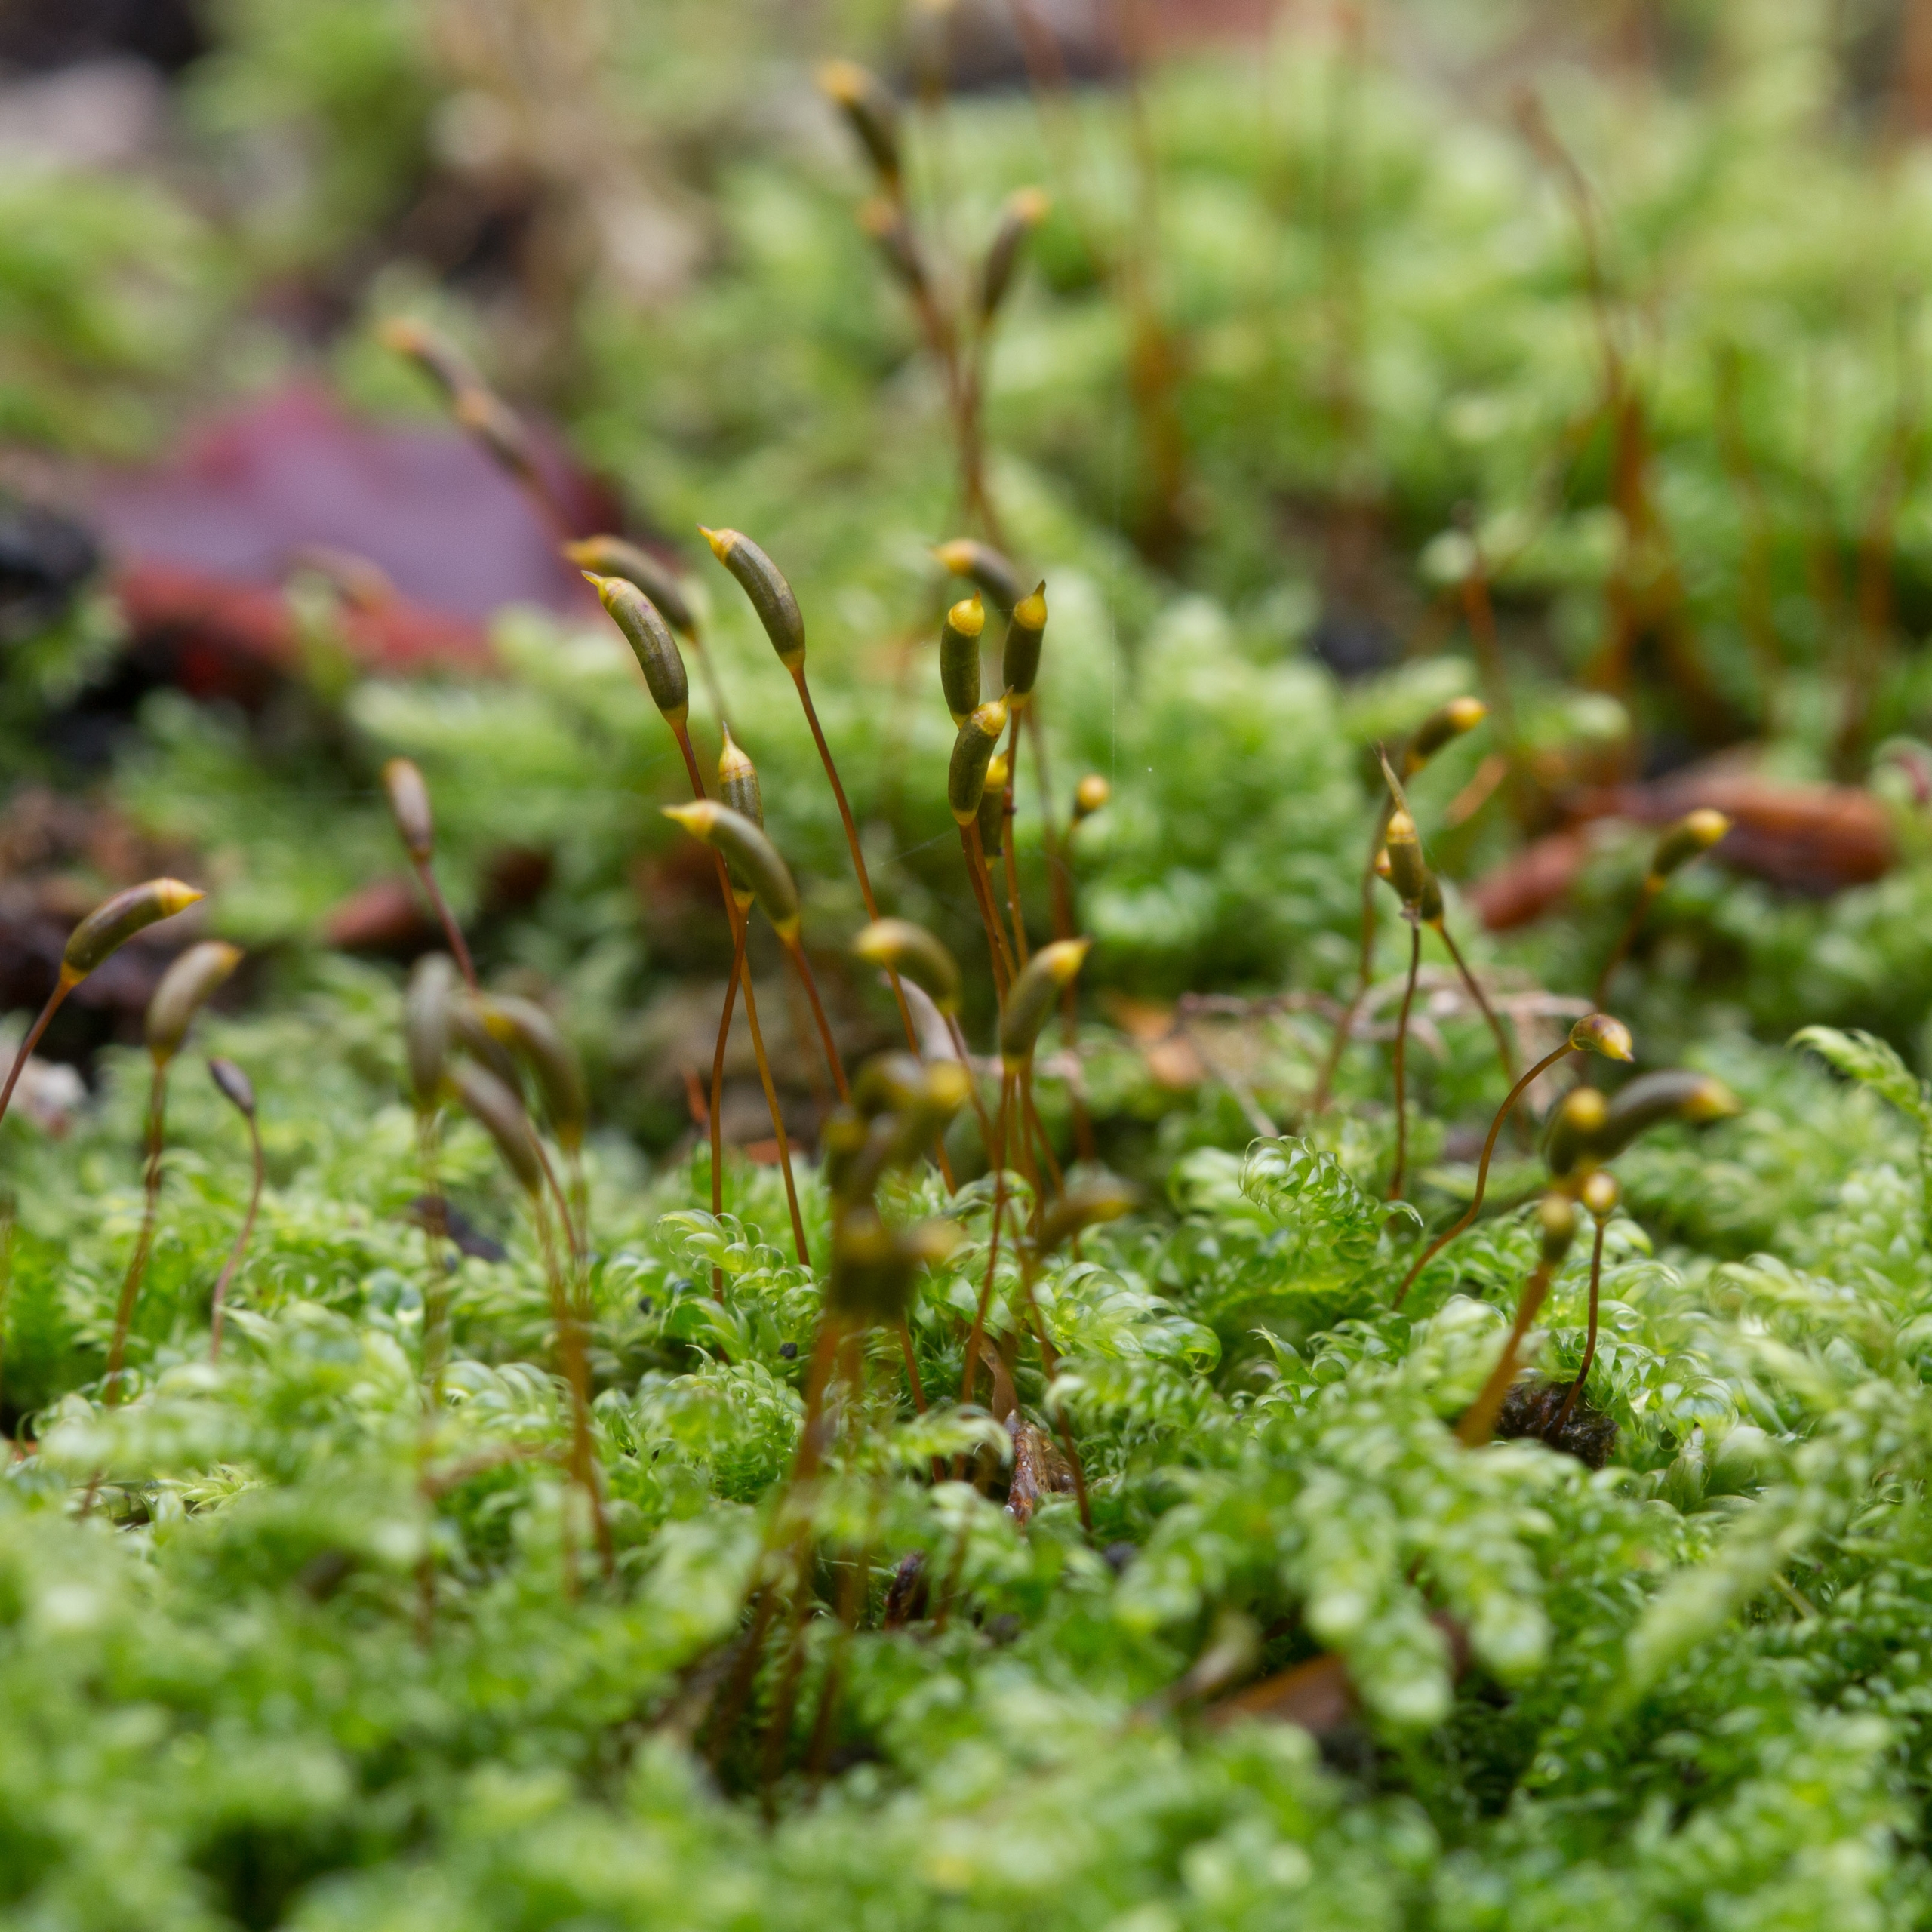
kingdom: Plantae
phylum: Bryophyta
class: Bryopsida
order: Hypnales
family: Hypnaceae
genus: Hypnum
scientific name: Hypnum cupressiforme
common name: Almindelig cypresmos
